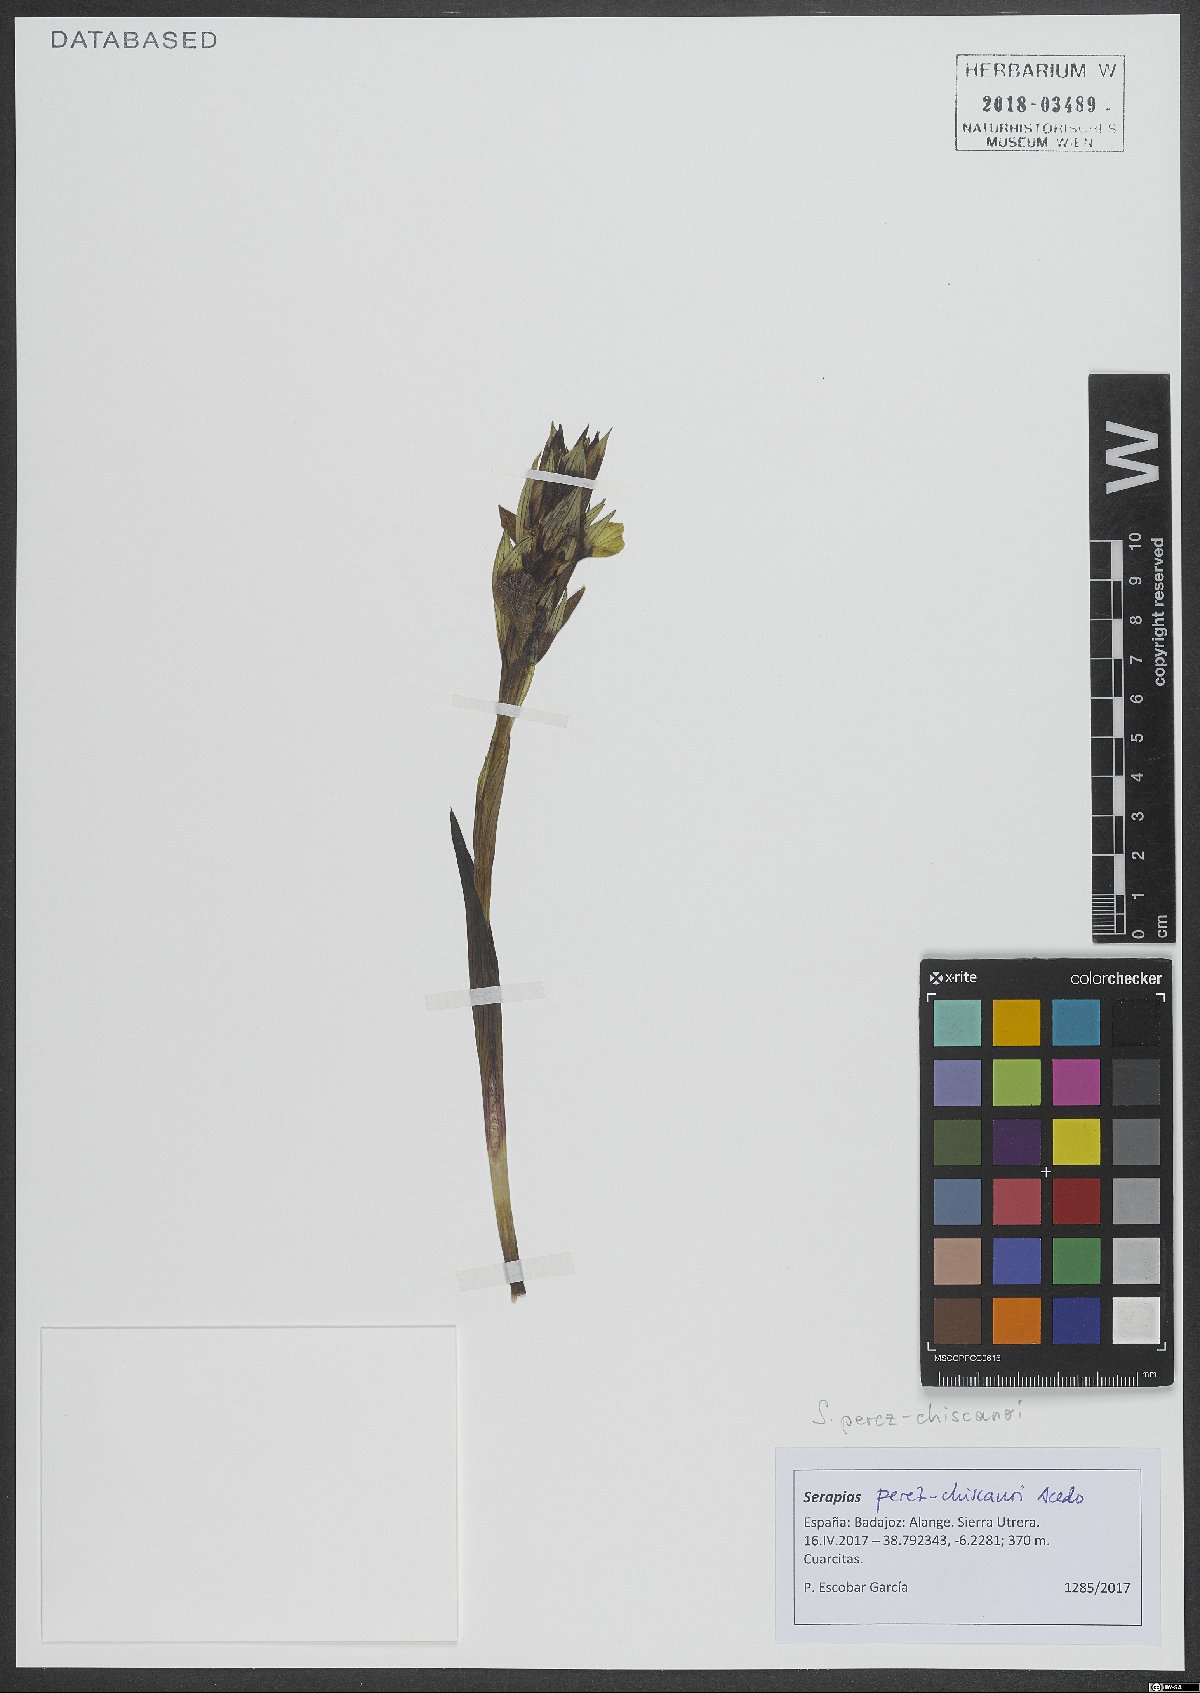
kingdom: Plantae
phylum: Tracheophyta
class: Liliopsida
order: Asparagales
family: Orchidaceae
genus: Serapias
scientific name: Serapias perez-chiscanoi
